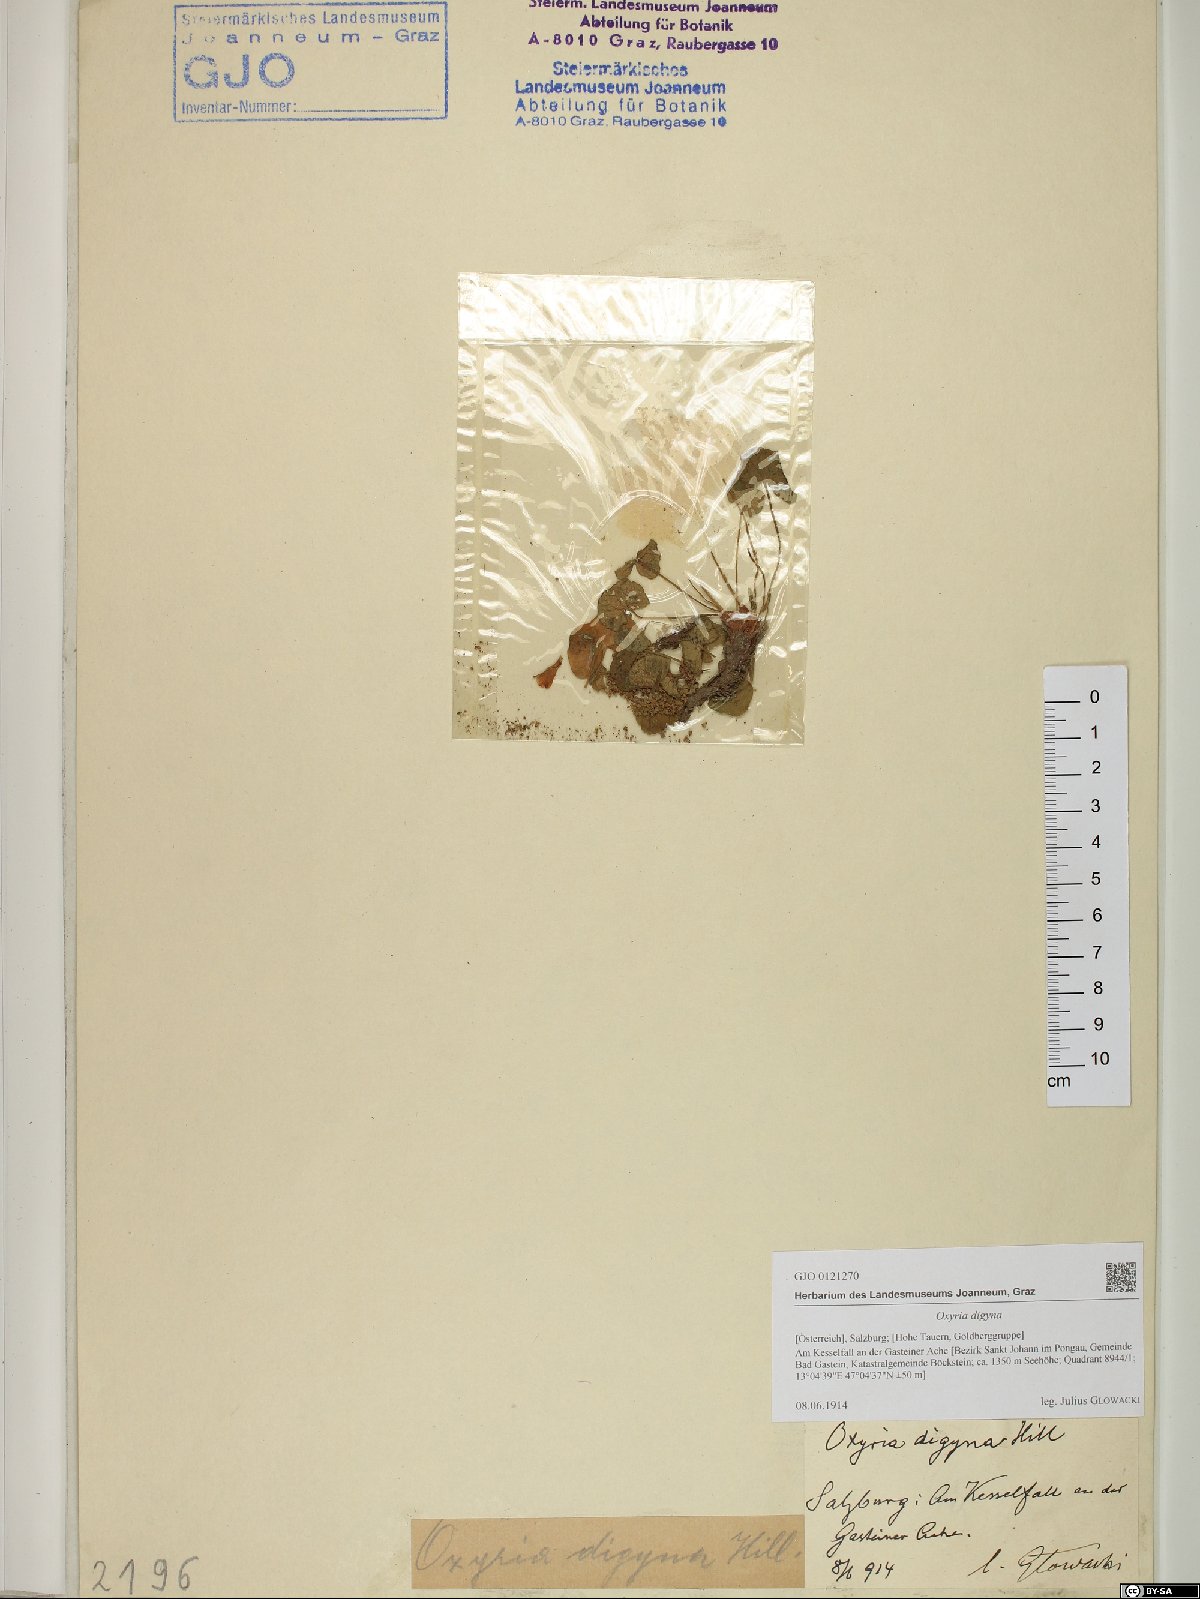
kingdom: Plantae
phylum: Tracheophyta
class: Magnoliopsida
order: Caryophyllales
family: Polygonaceae
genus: Oxyria
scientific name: Oxyria digyna
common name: Alpine mountain-sorrel
